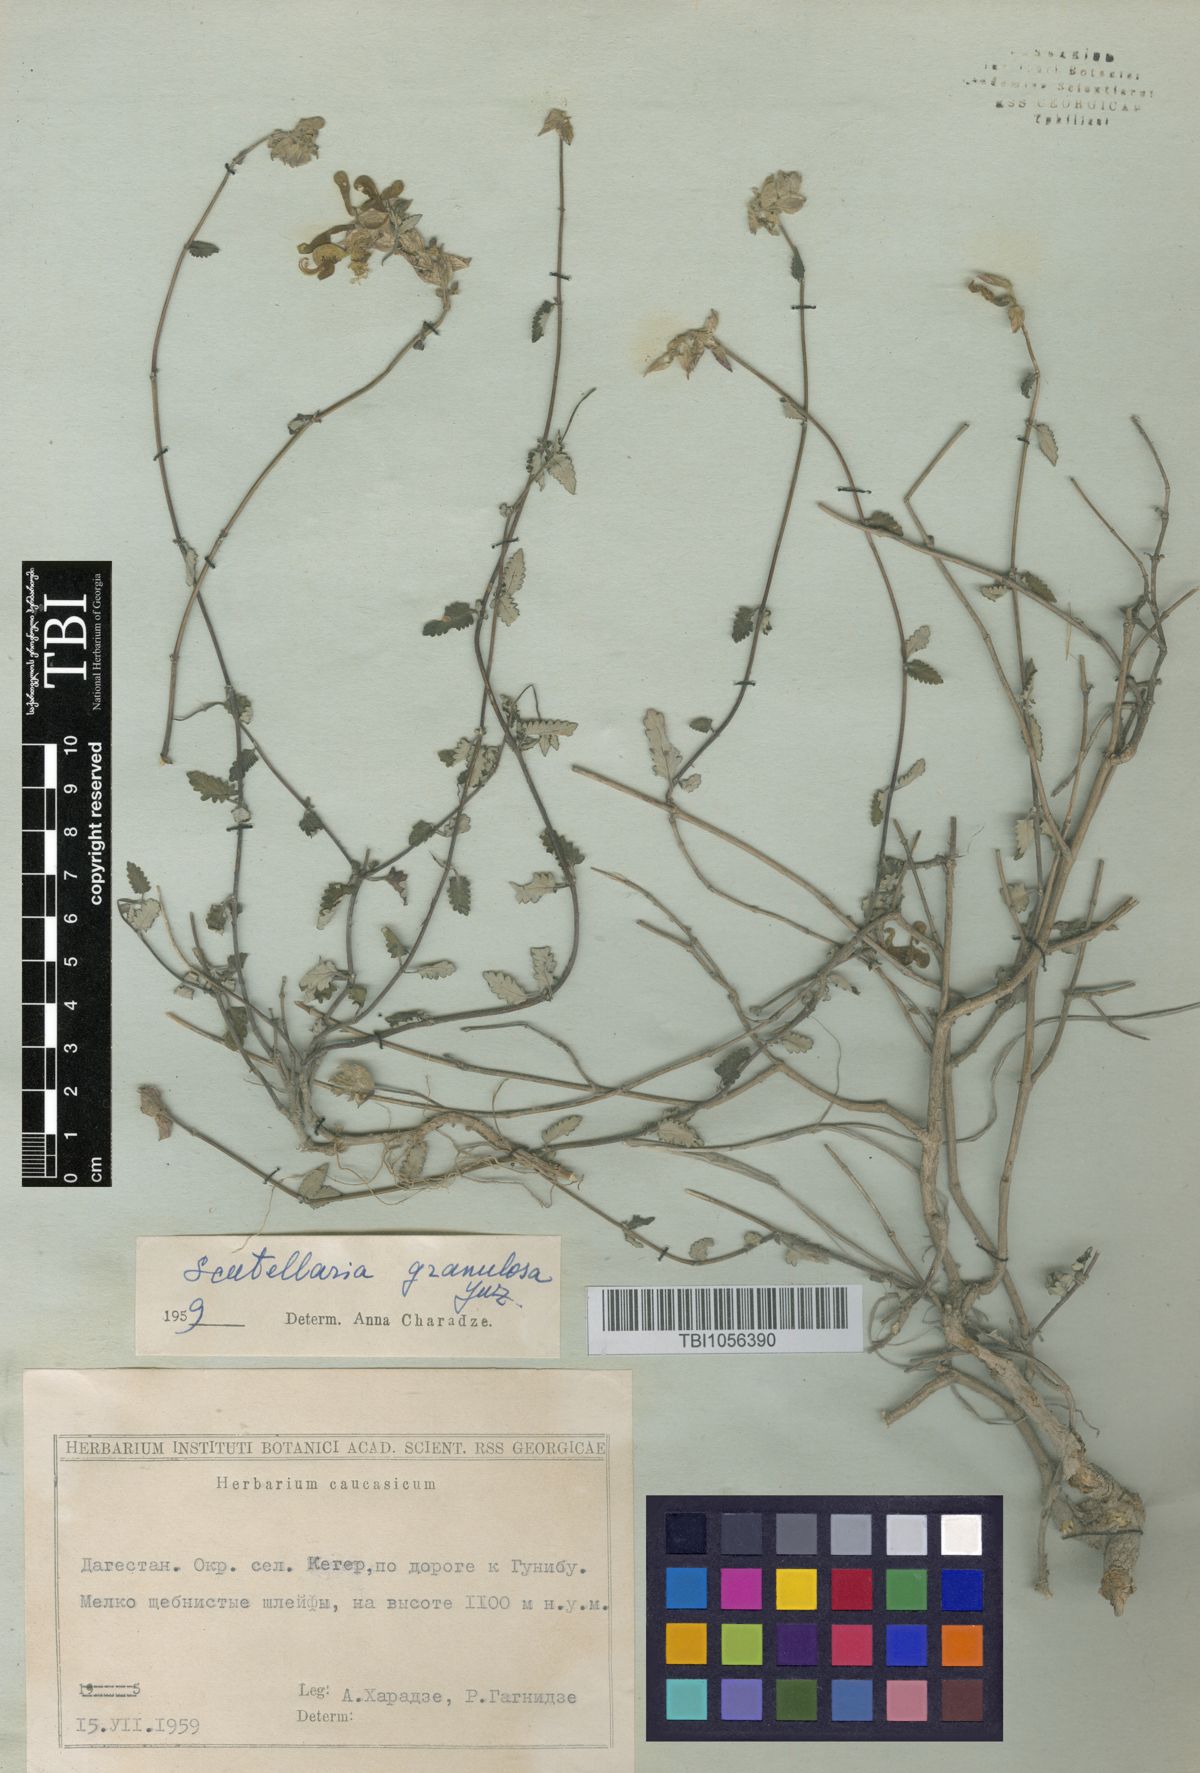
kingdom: Plantae
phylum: Tracheophyta
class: Magnoliopsida
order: Lamiales
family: Lamiaceae
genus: Scutellaria
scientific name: Scutellaria granulosa
